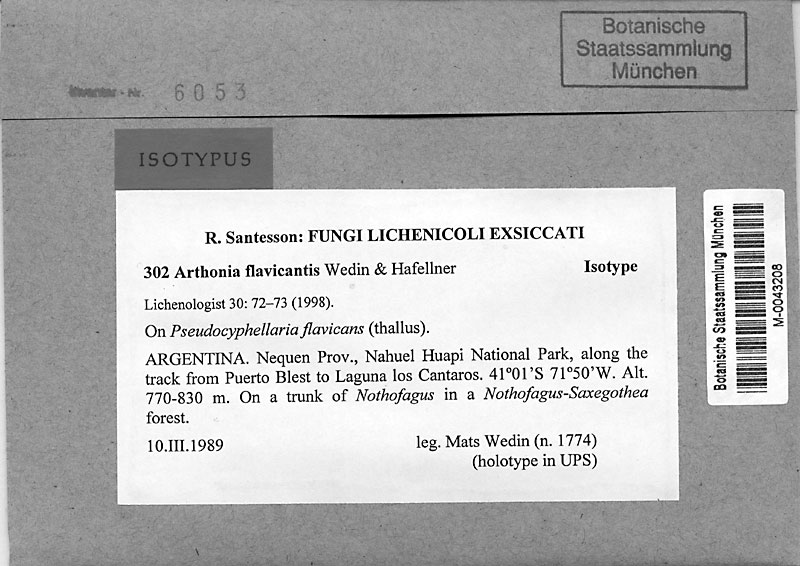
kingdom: Fungi
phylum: Ascomycota
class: Arthoniomycetes
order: Arthoniales
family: Arthoniaceae
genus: Arthonia
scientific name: Arthonia
